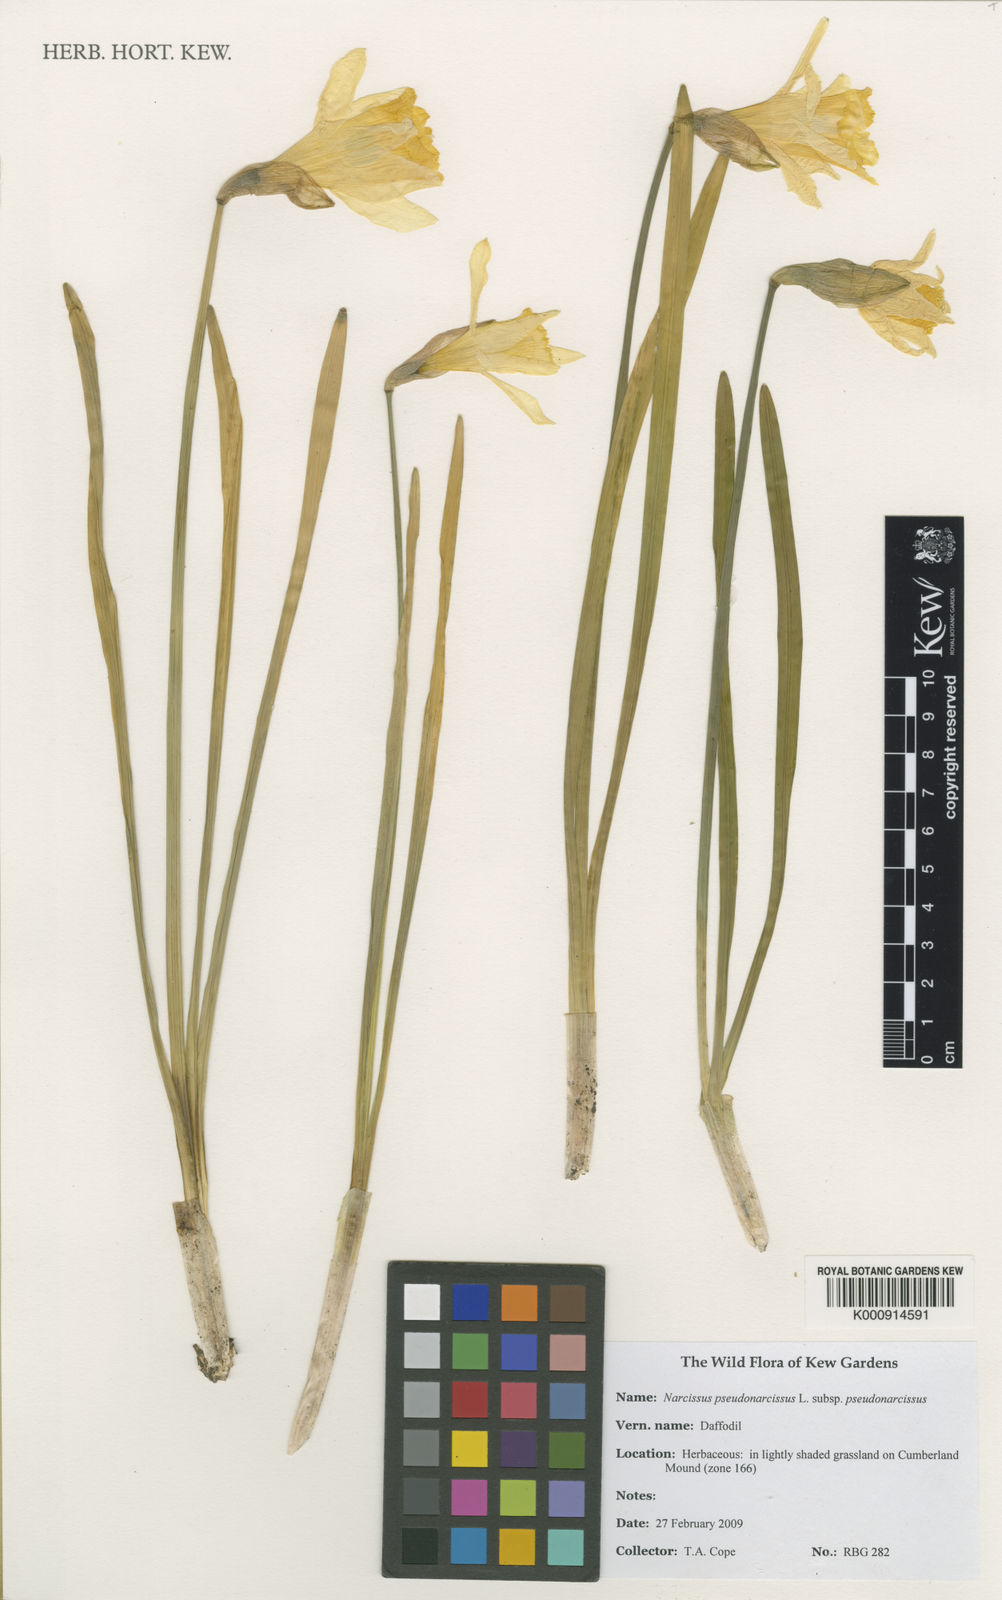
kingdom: Plantae
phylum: Tracheophyta
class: Liliopsida
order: Asparagales
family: Amaryllidaceae
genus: Narcissus
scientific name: Narcissus
